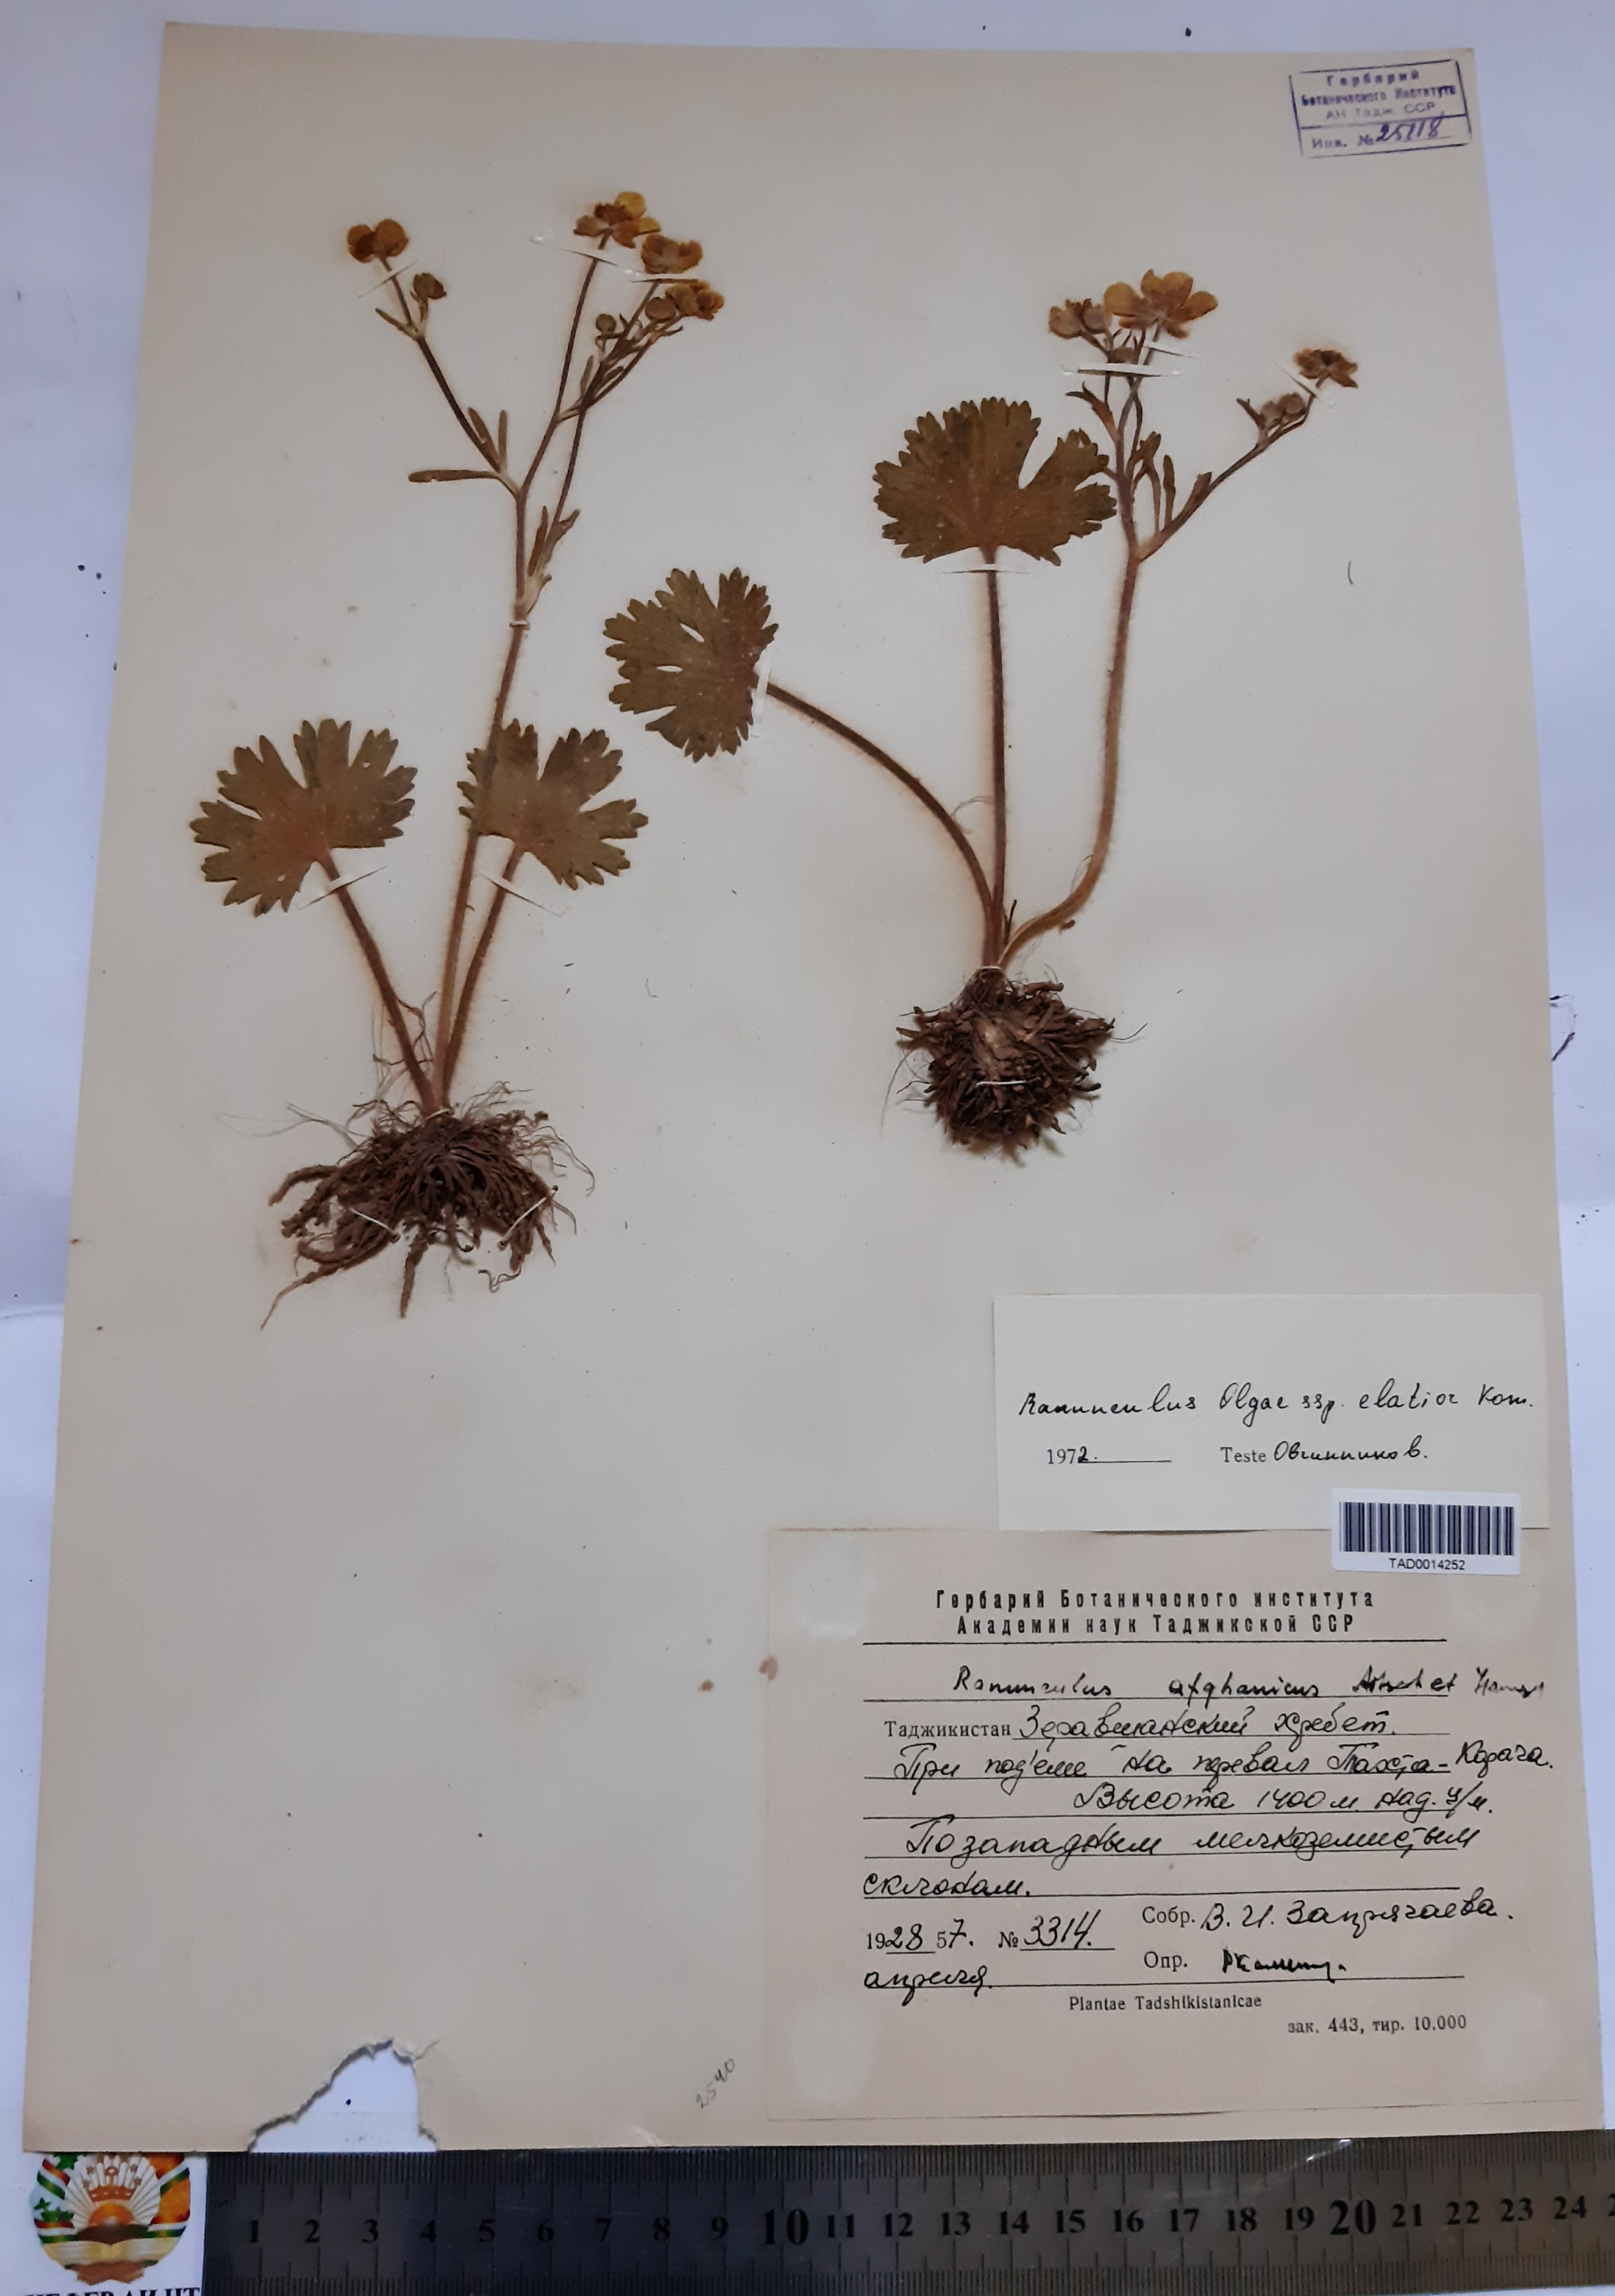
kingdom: Plantae
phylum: Tracheophyta
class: Magnoliopsida
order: Ranunculales
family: Ranunculaceae
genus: Ranunculus
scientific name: Ranunculus afghanicus
